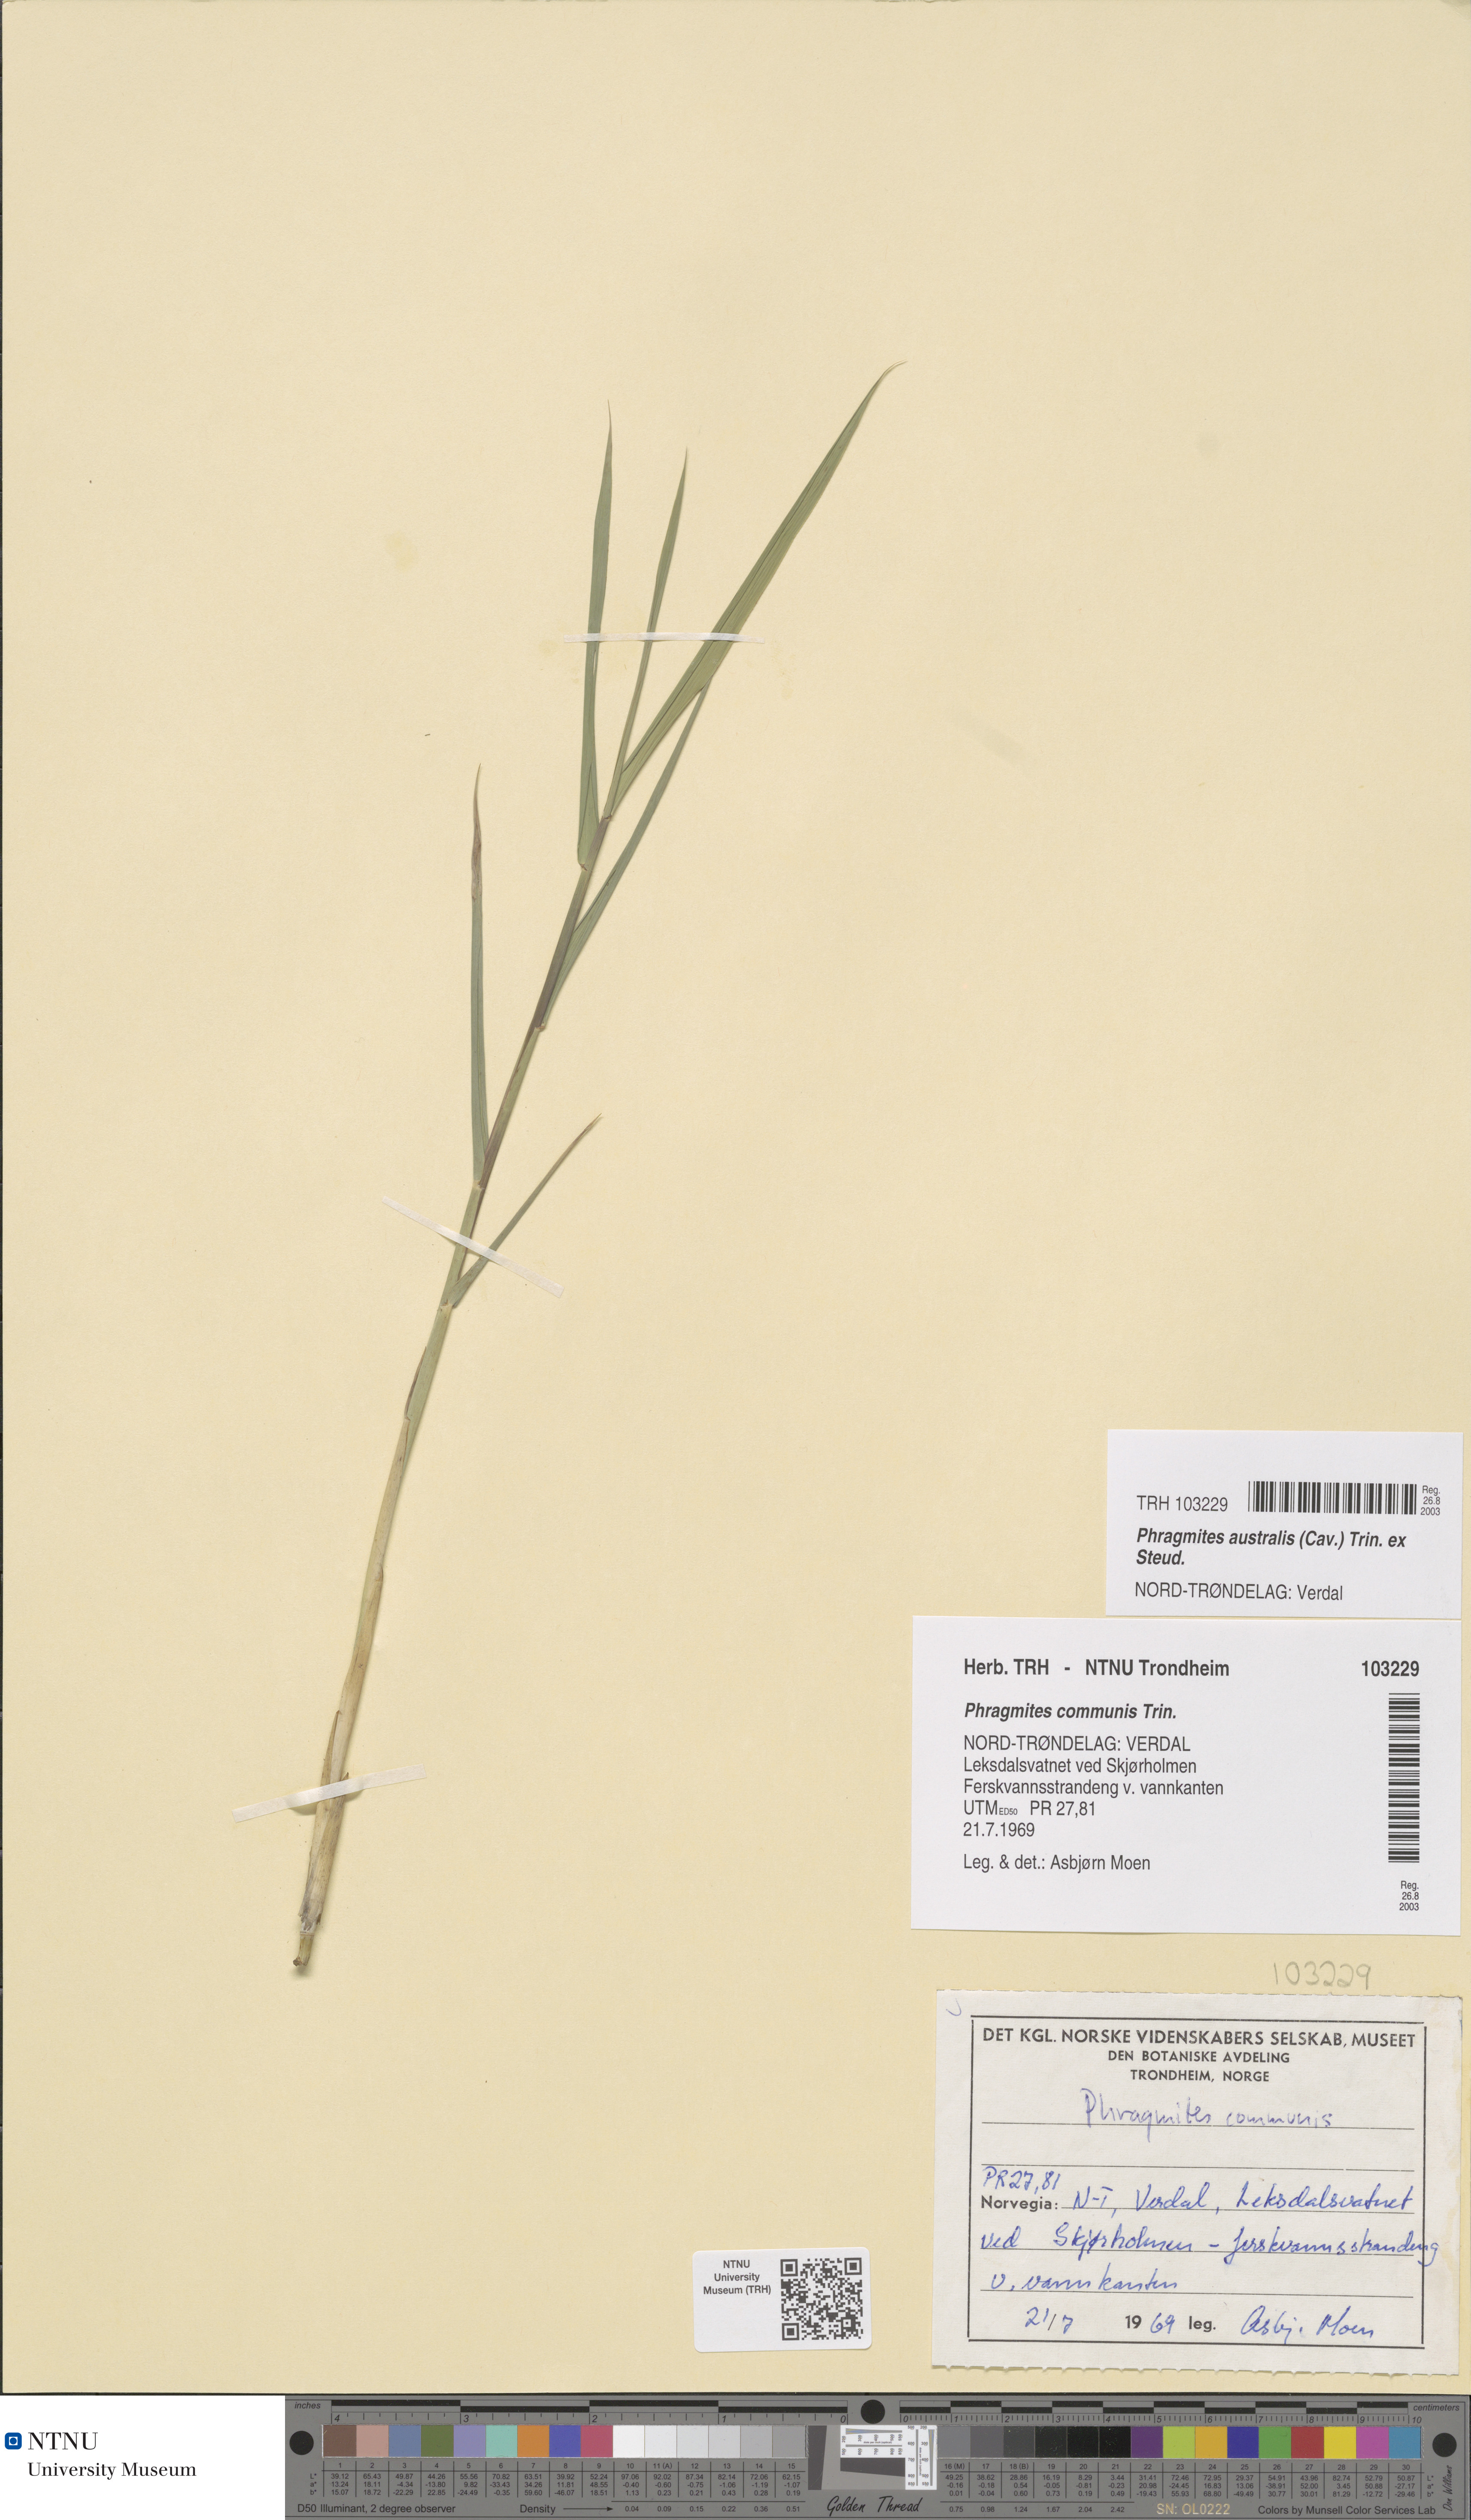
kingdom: Plantae
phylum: Tracheophyta
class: Liliopsida
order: Poales
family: Poaceae
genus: Phragmites
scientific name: Phragmites australis
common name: Common reed
